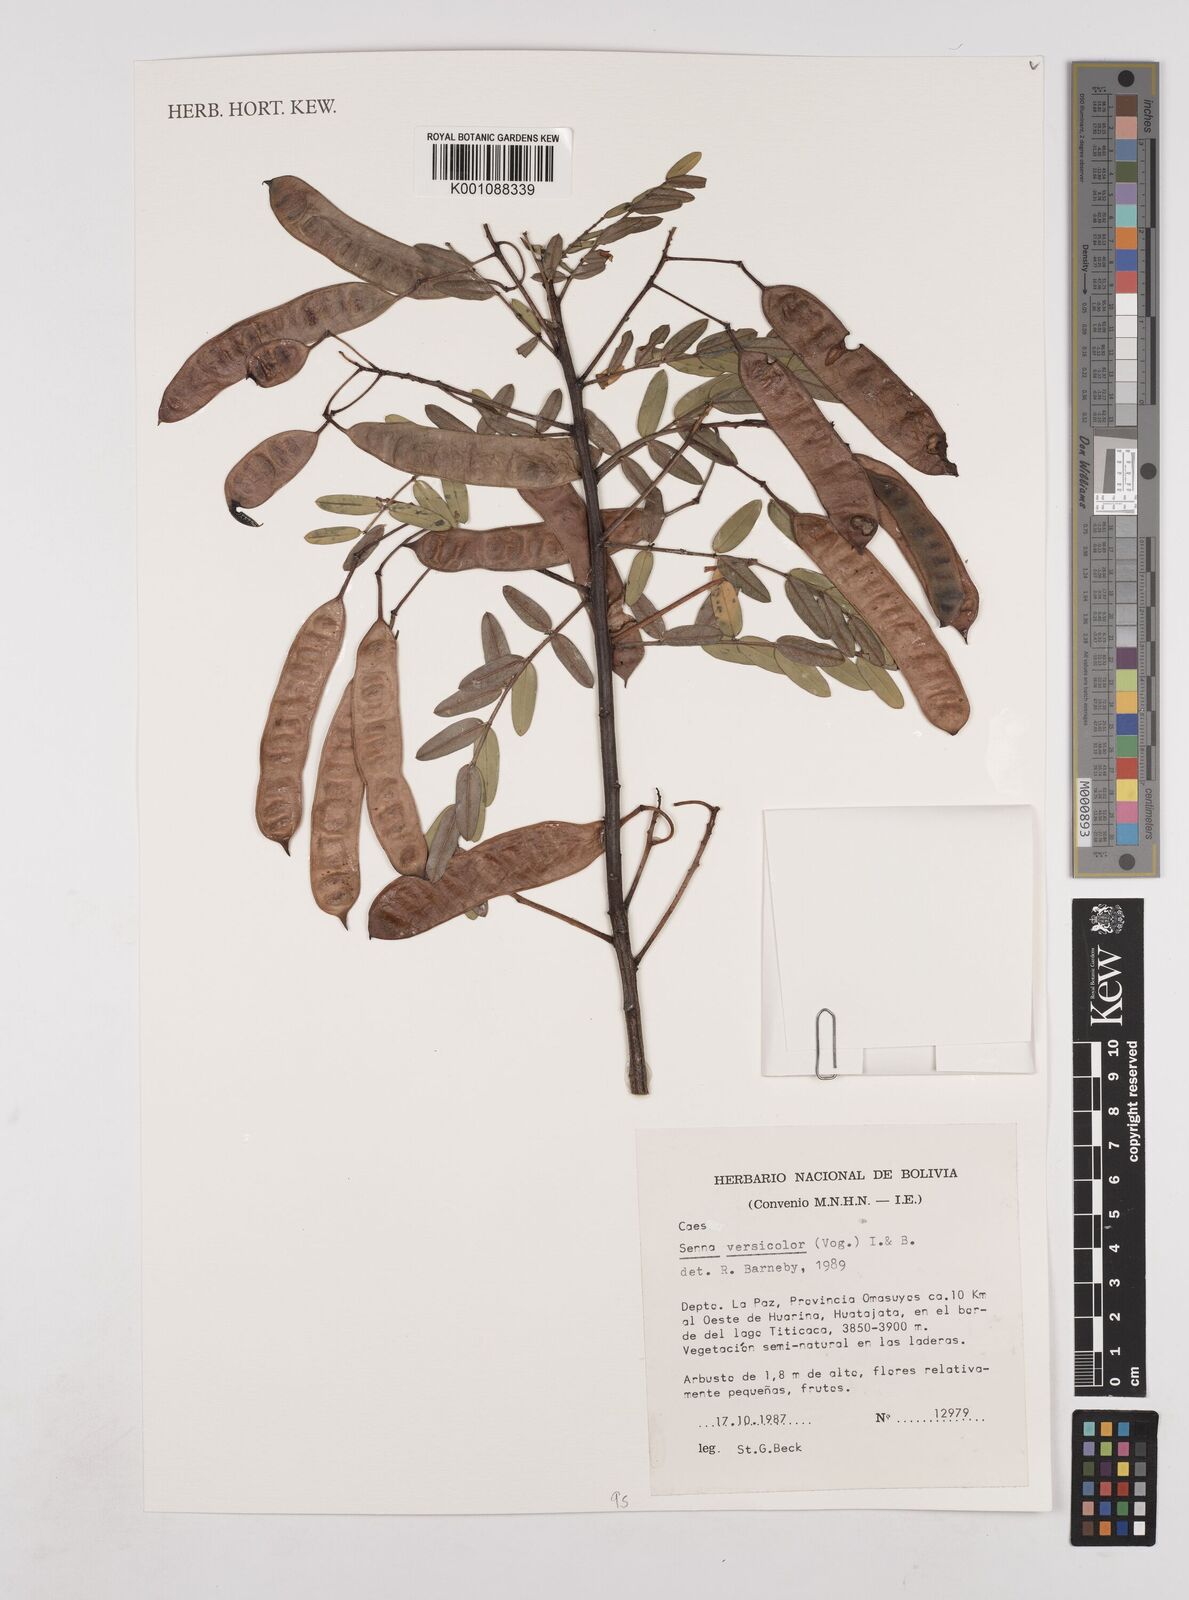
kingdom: Plantae
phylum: Tracheophyta
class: Magnoliopsida
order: Fabales
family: Fabaceae
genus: Senna
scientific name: Senna versicolor
